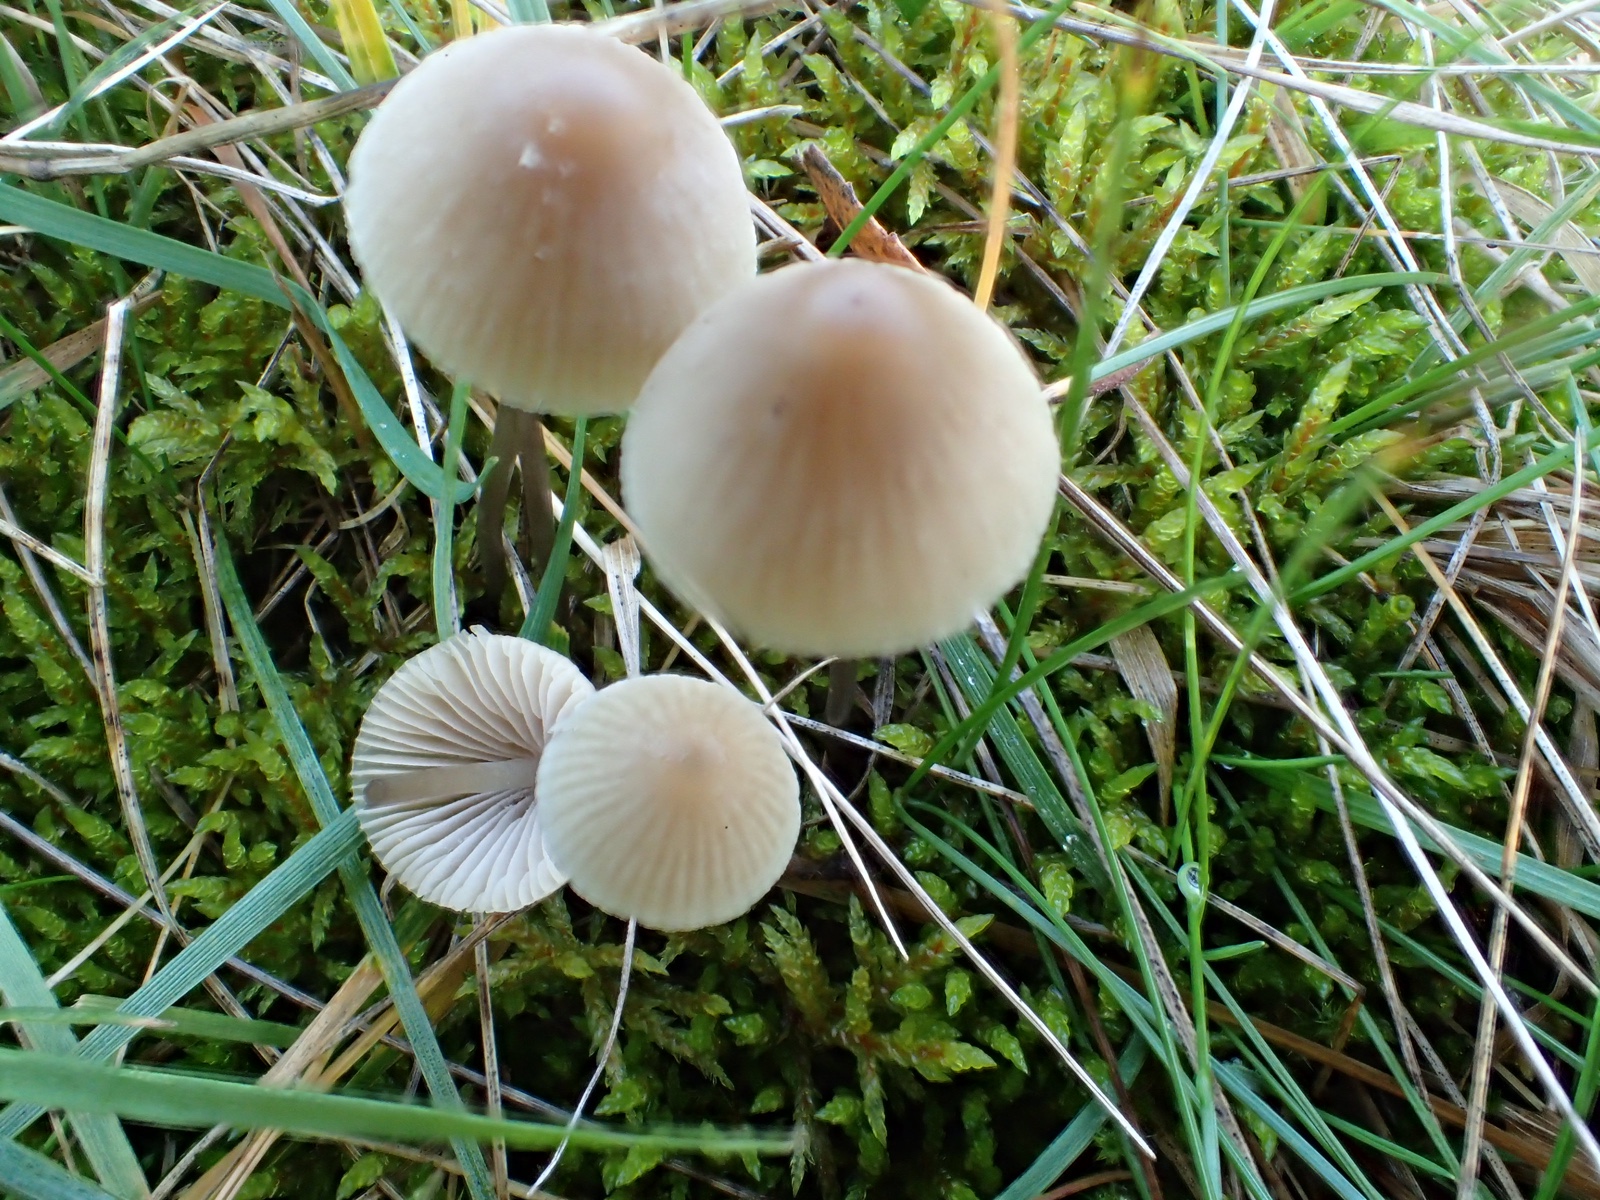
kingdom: Fungi
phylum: Basidiomycota
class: Agaricomycetes
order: Agaricales
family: Mycenaceae
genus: Mycena
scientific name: Mycena
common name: huesvamp
